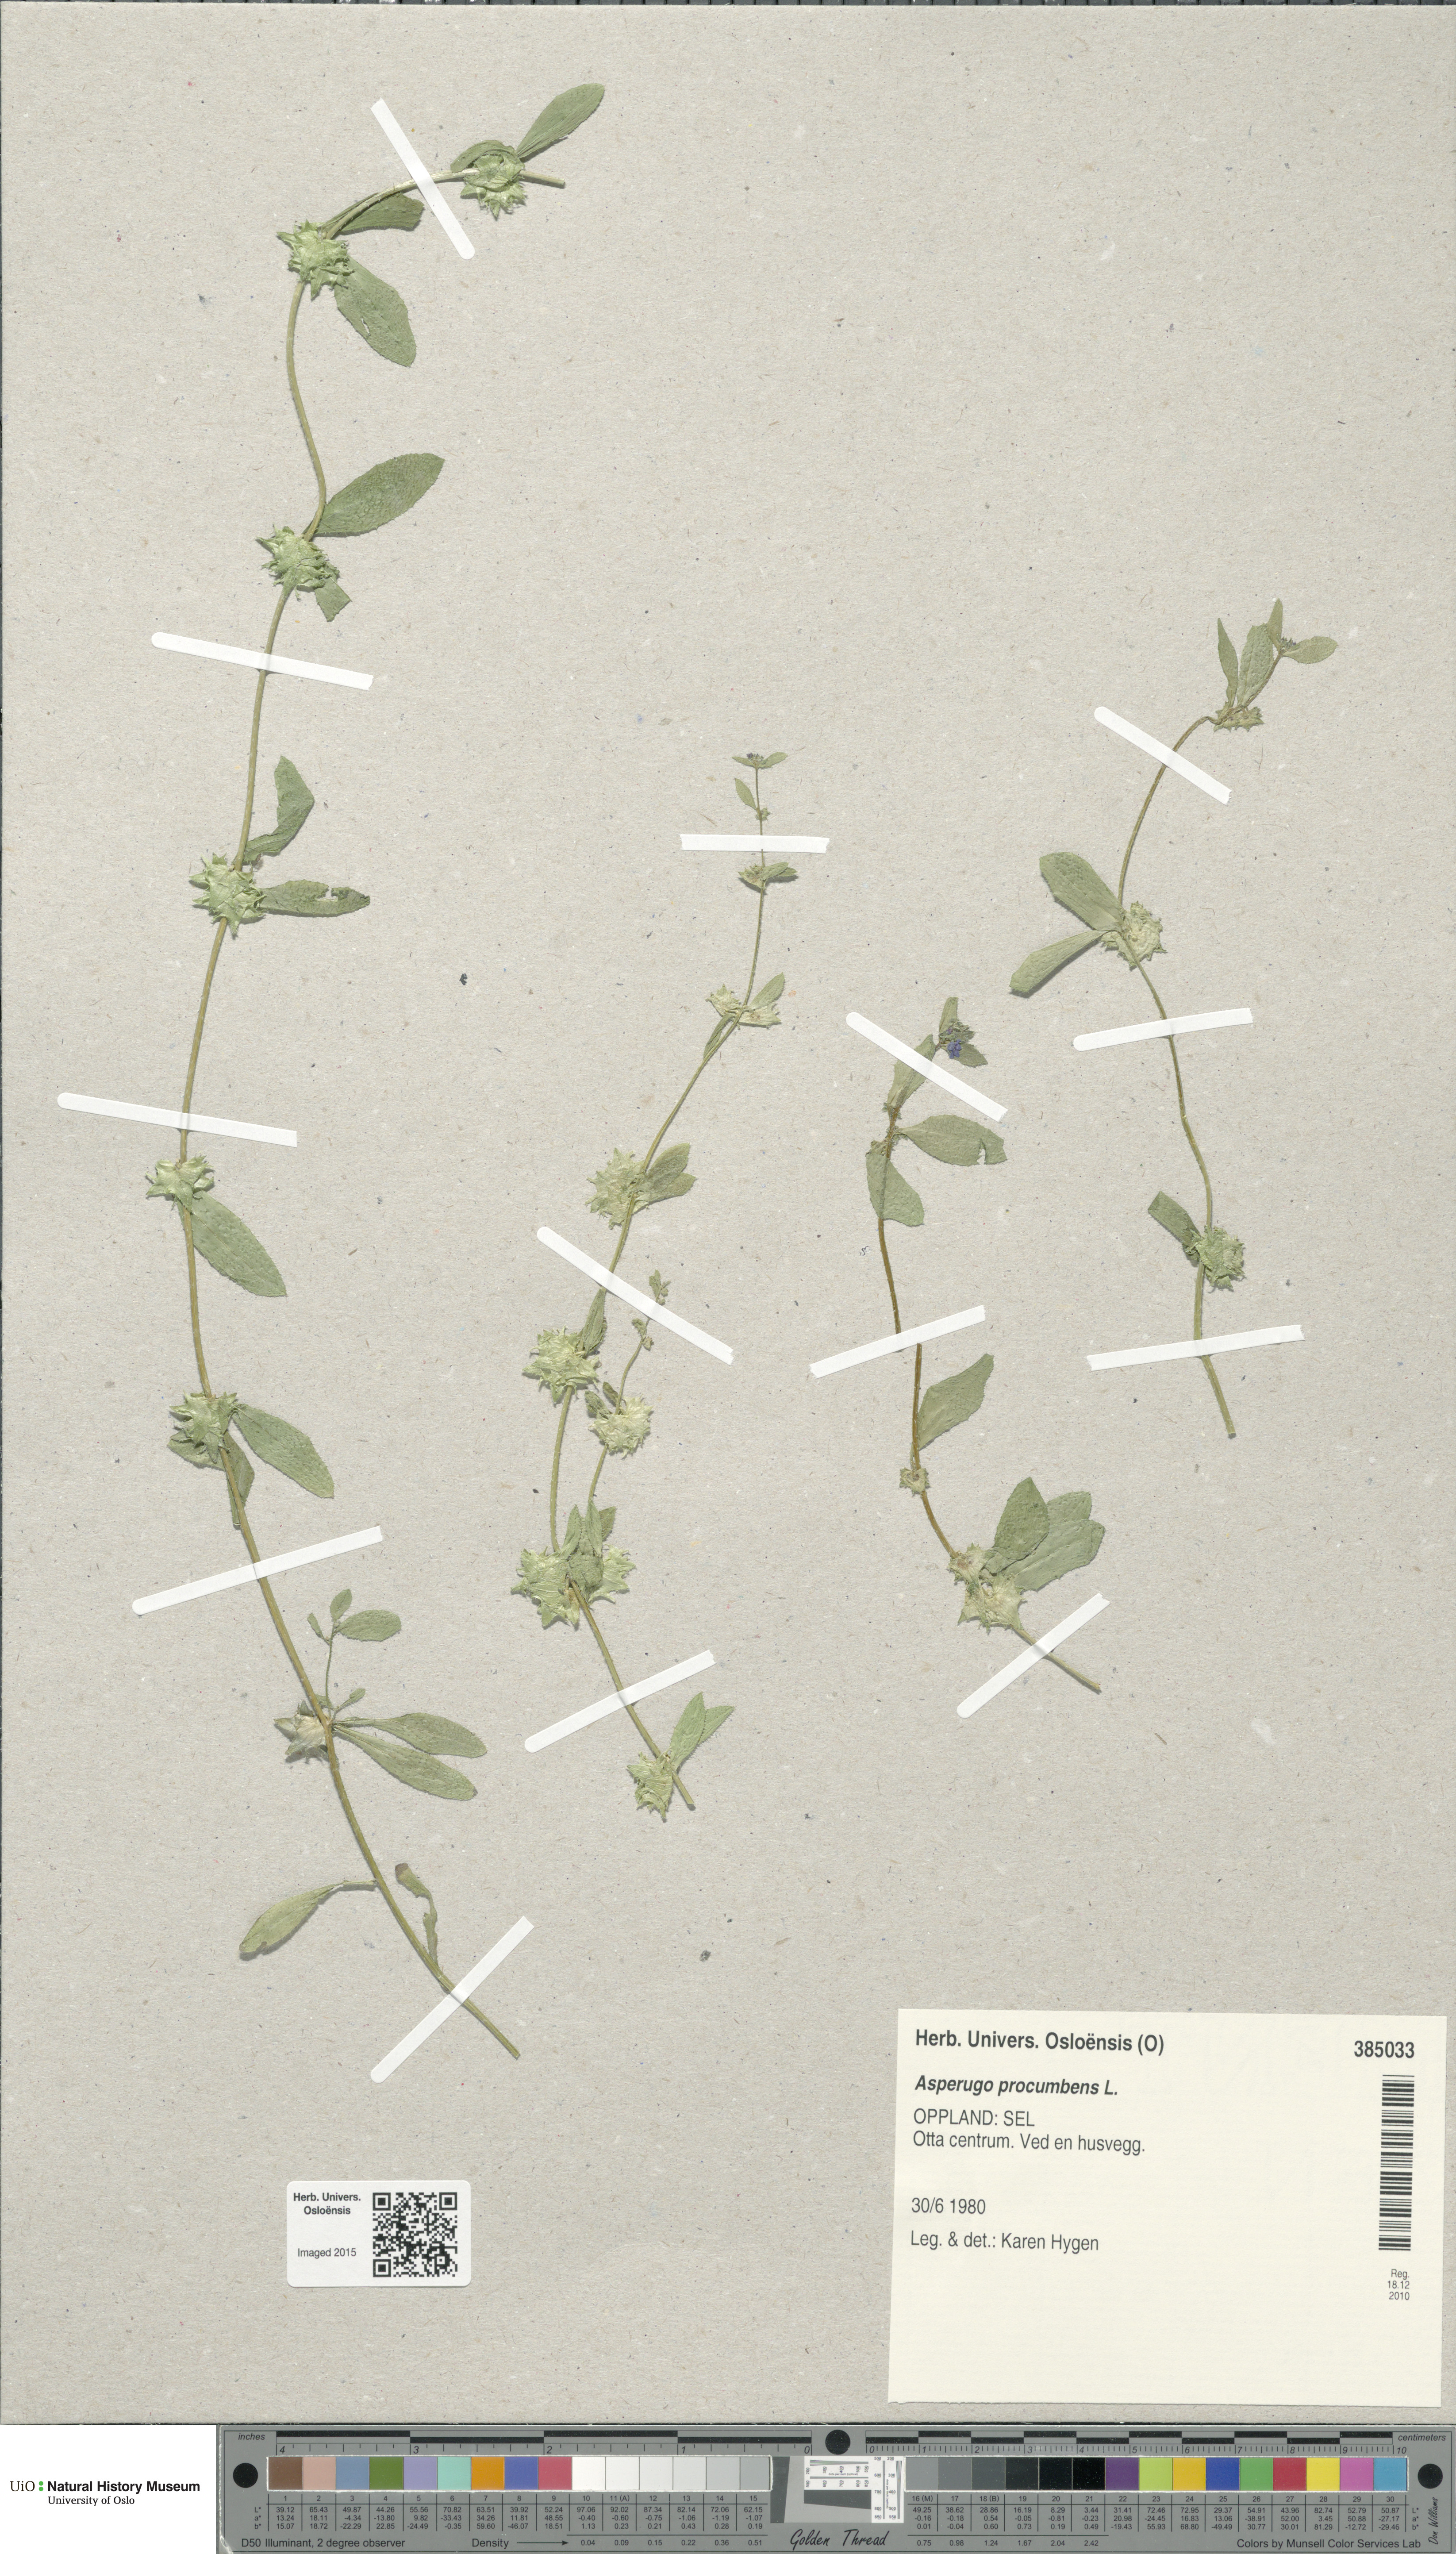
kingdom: Plantae
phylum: Tracheophyta
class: Magnoliopsida
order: Boraginales
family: Boraginaceae
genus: Asperugo
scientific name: Asperugo procumbens
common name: Madwort
